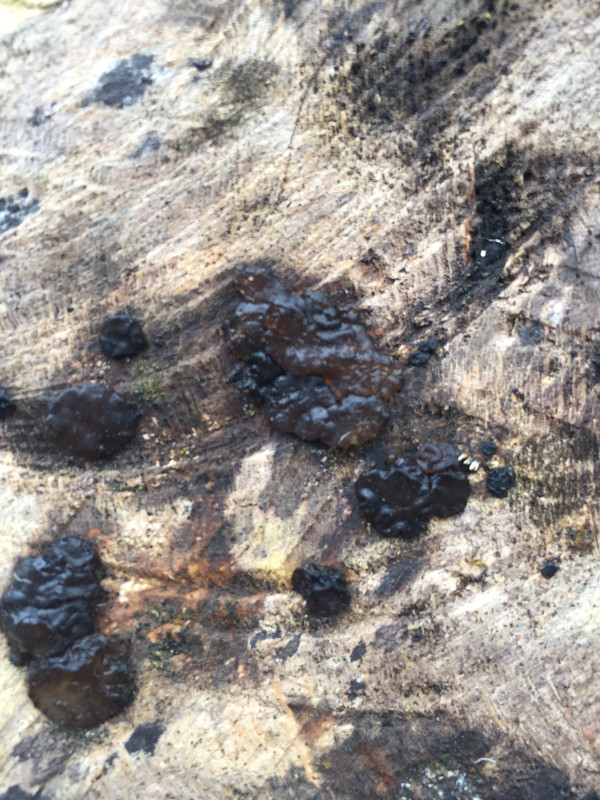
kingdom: Fungi
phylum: Basidiomycota
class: Agaricomycetes
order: Auriculariales
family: Auriculariaceae
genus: Exidia
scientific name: Exidia nigricans
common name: almindelig bævretop
